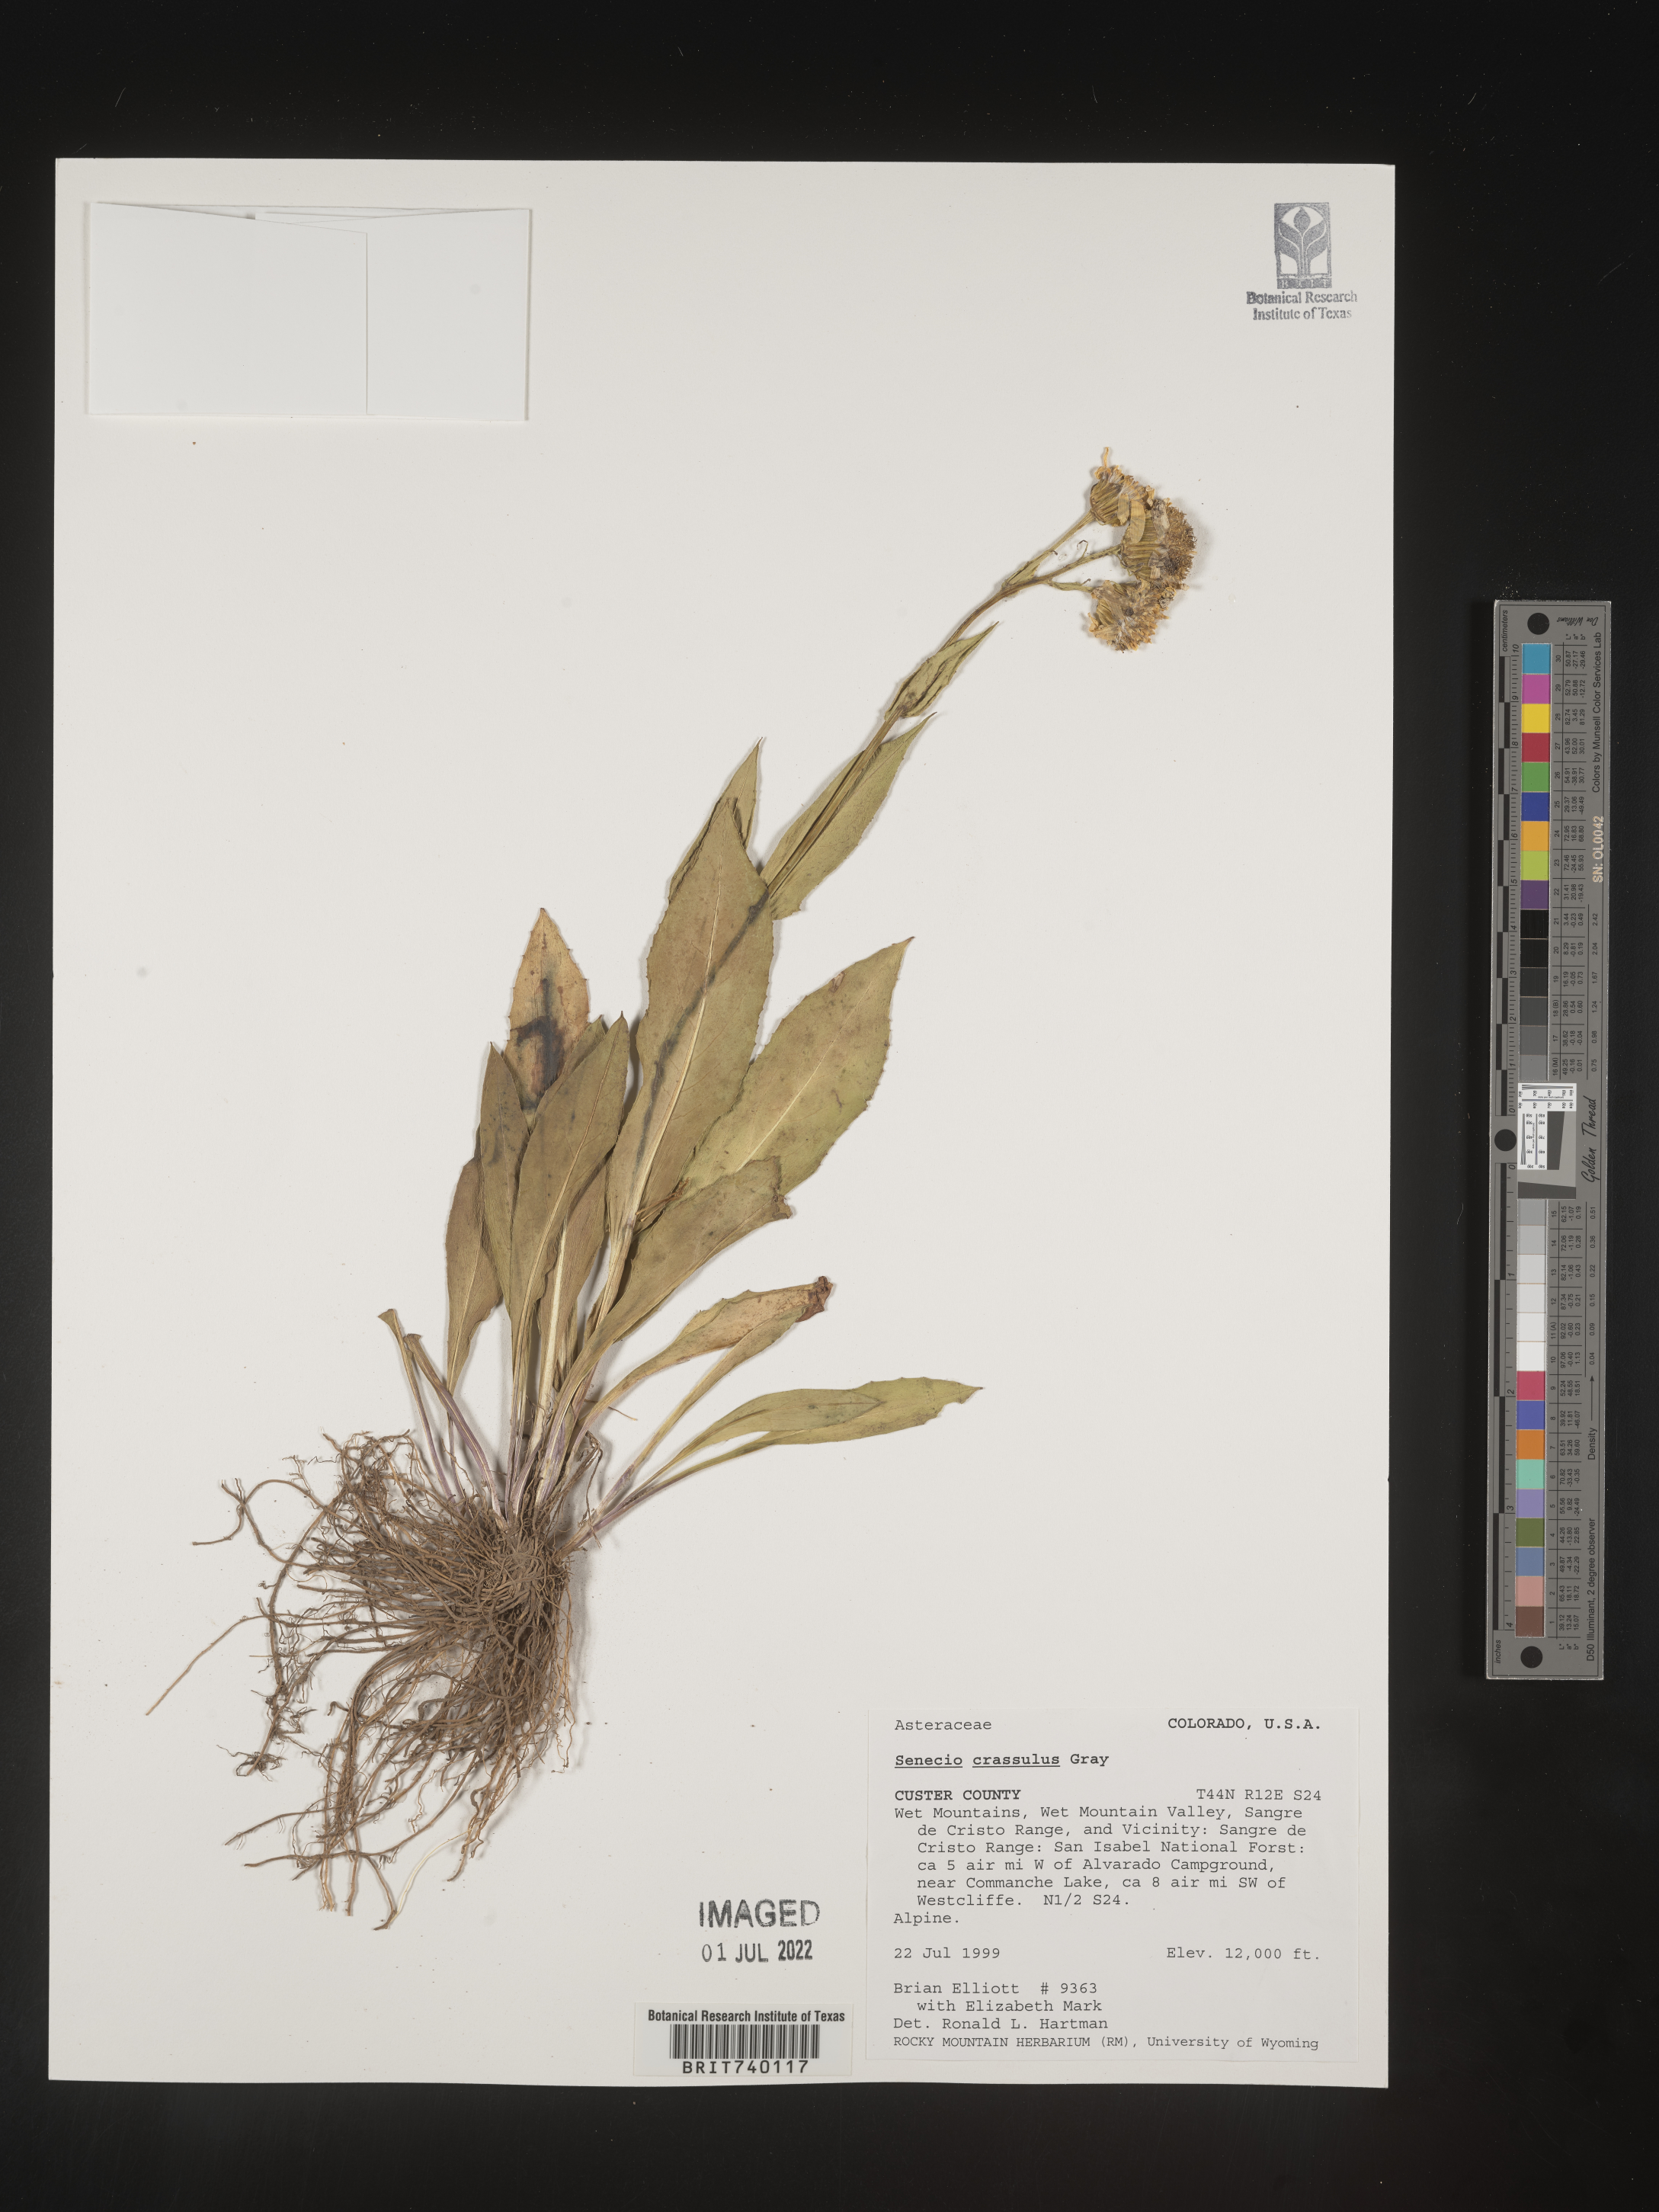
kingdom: Plantae
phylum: Tracheophyta
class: Magnoliopsida
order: Asterales
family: Asteraceae
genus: Senecio
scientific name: Senecio crassulus
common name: Mountain-meadow butterweed
